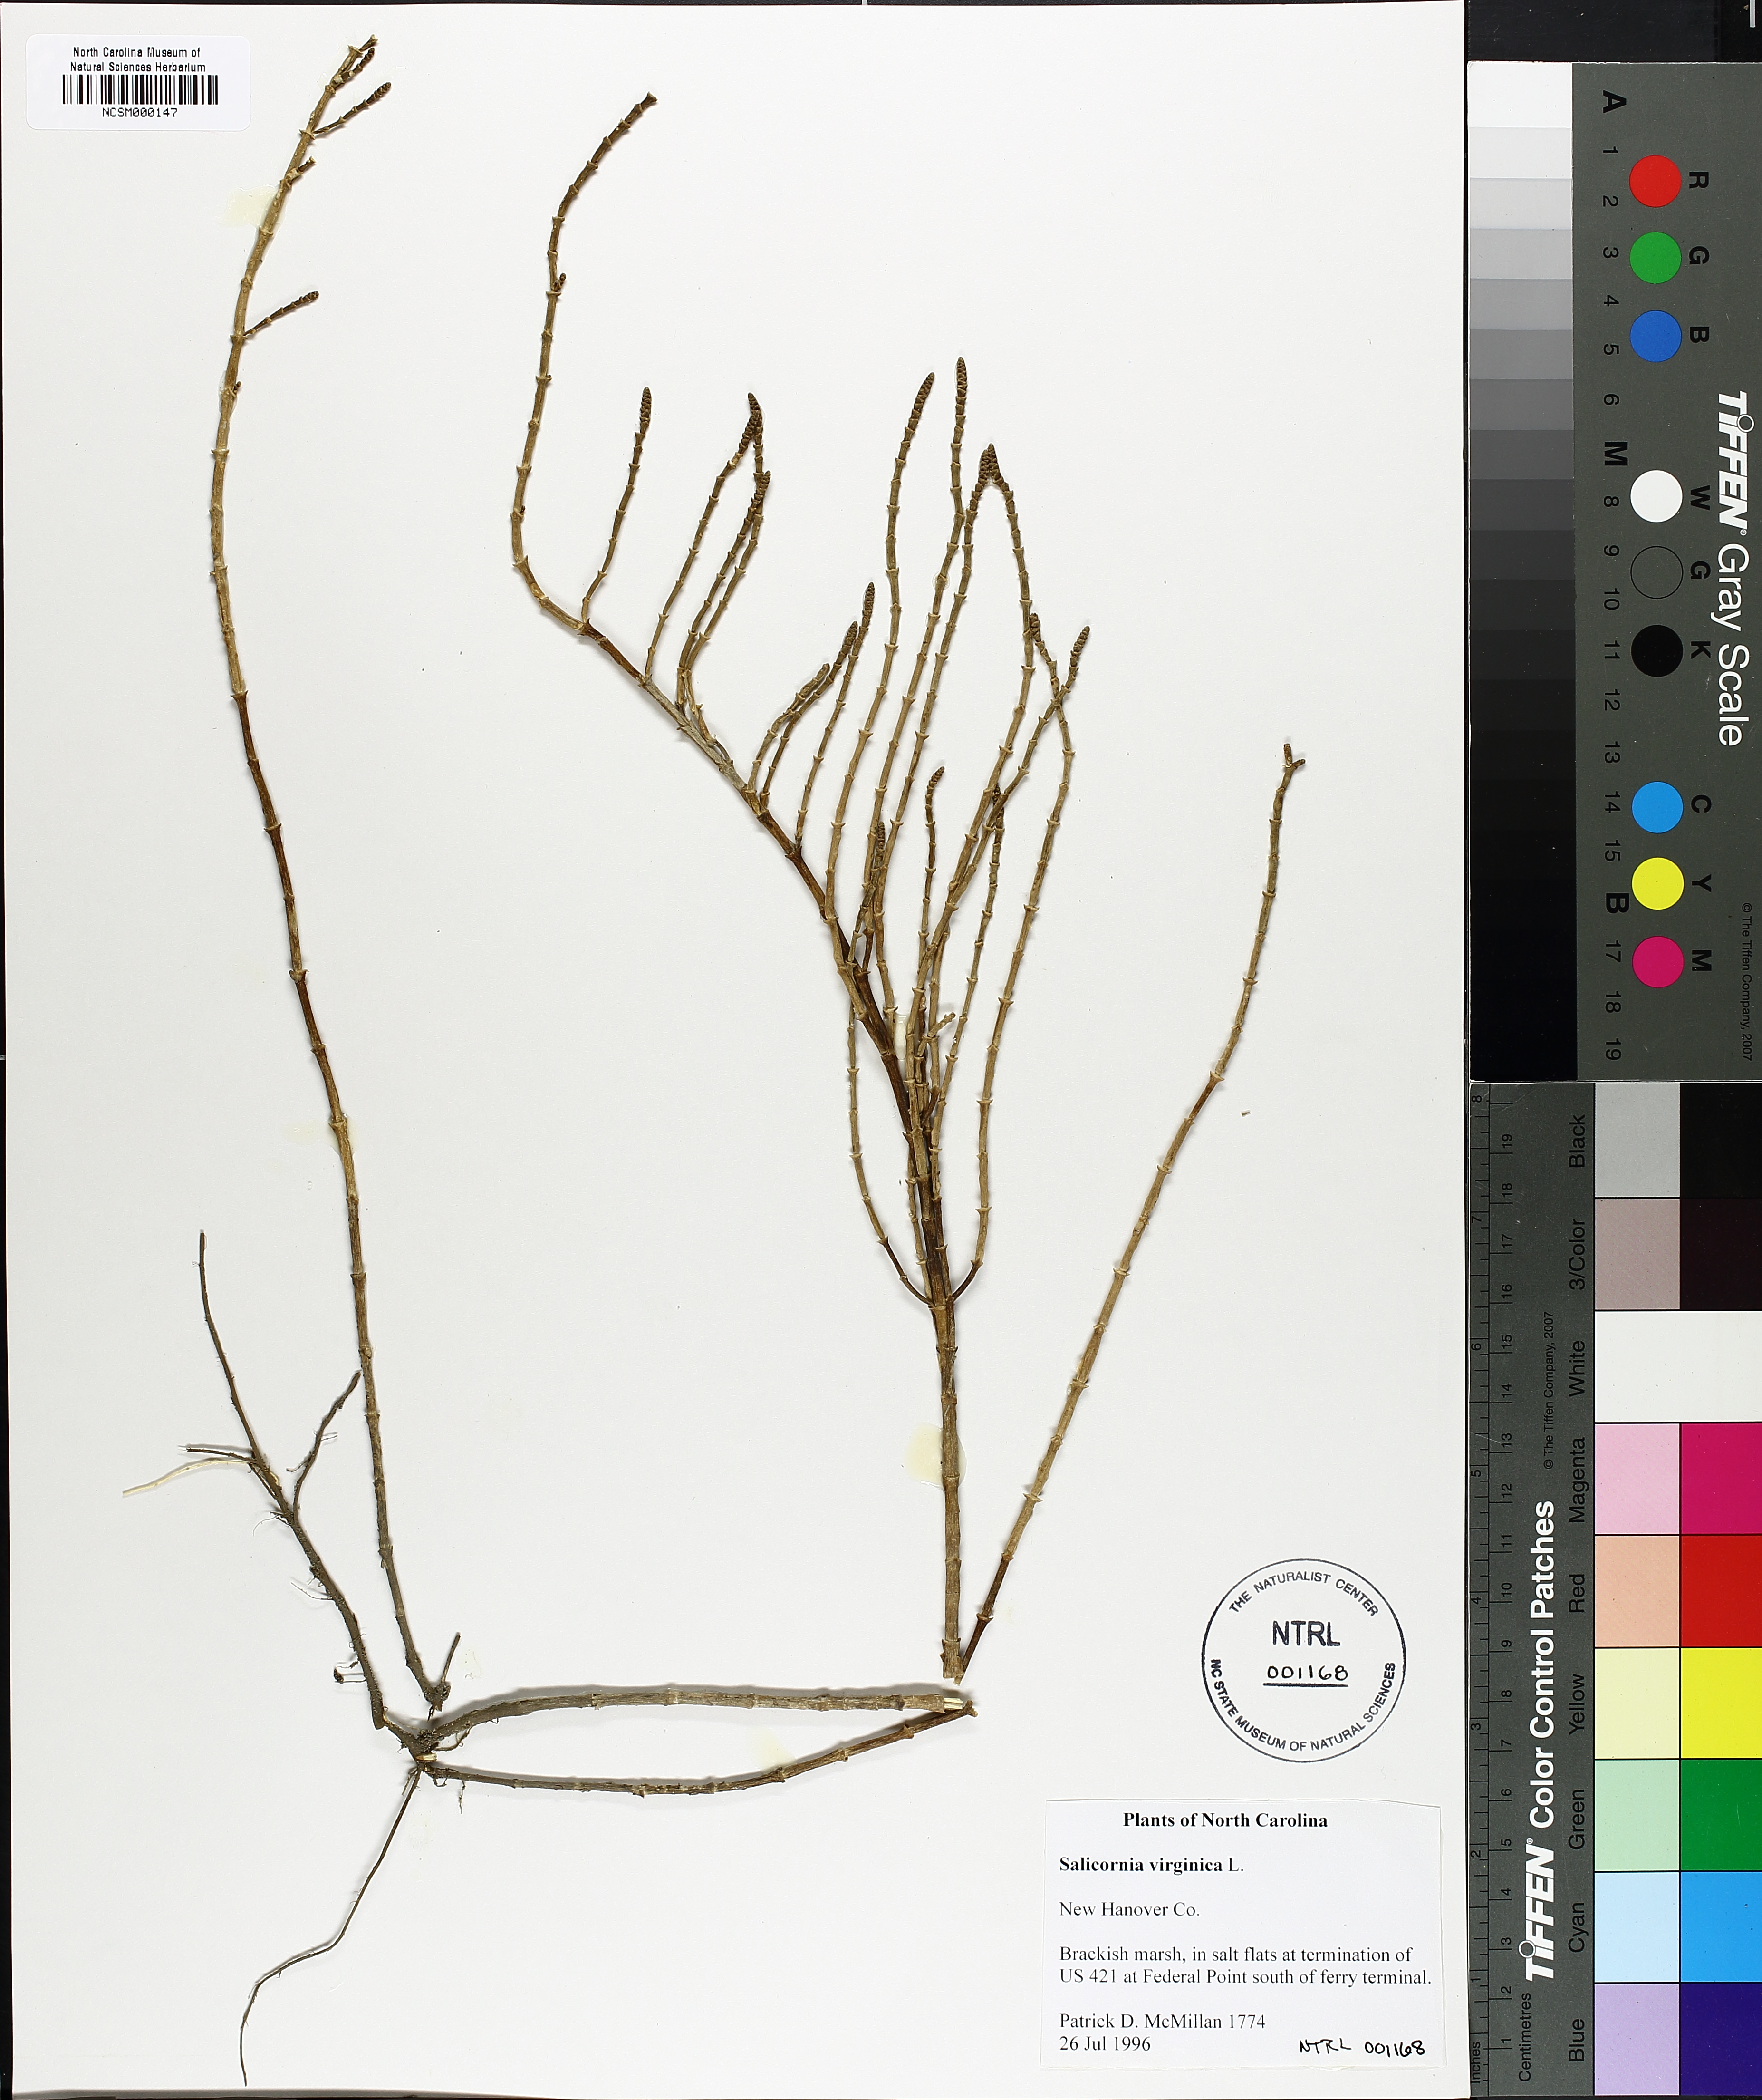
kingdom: Plantae
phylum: Tracheophyta
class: Magnoliopsida
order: Caryophyllales
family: Amaranthaceae
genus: Salicornia
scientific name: Salicornia virginica
